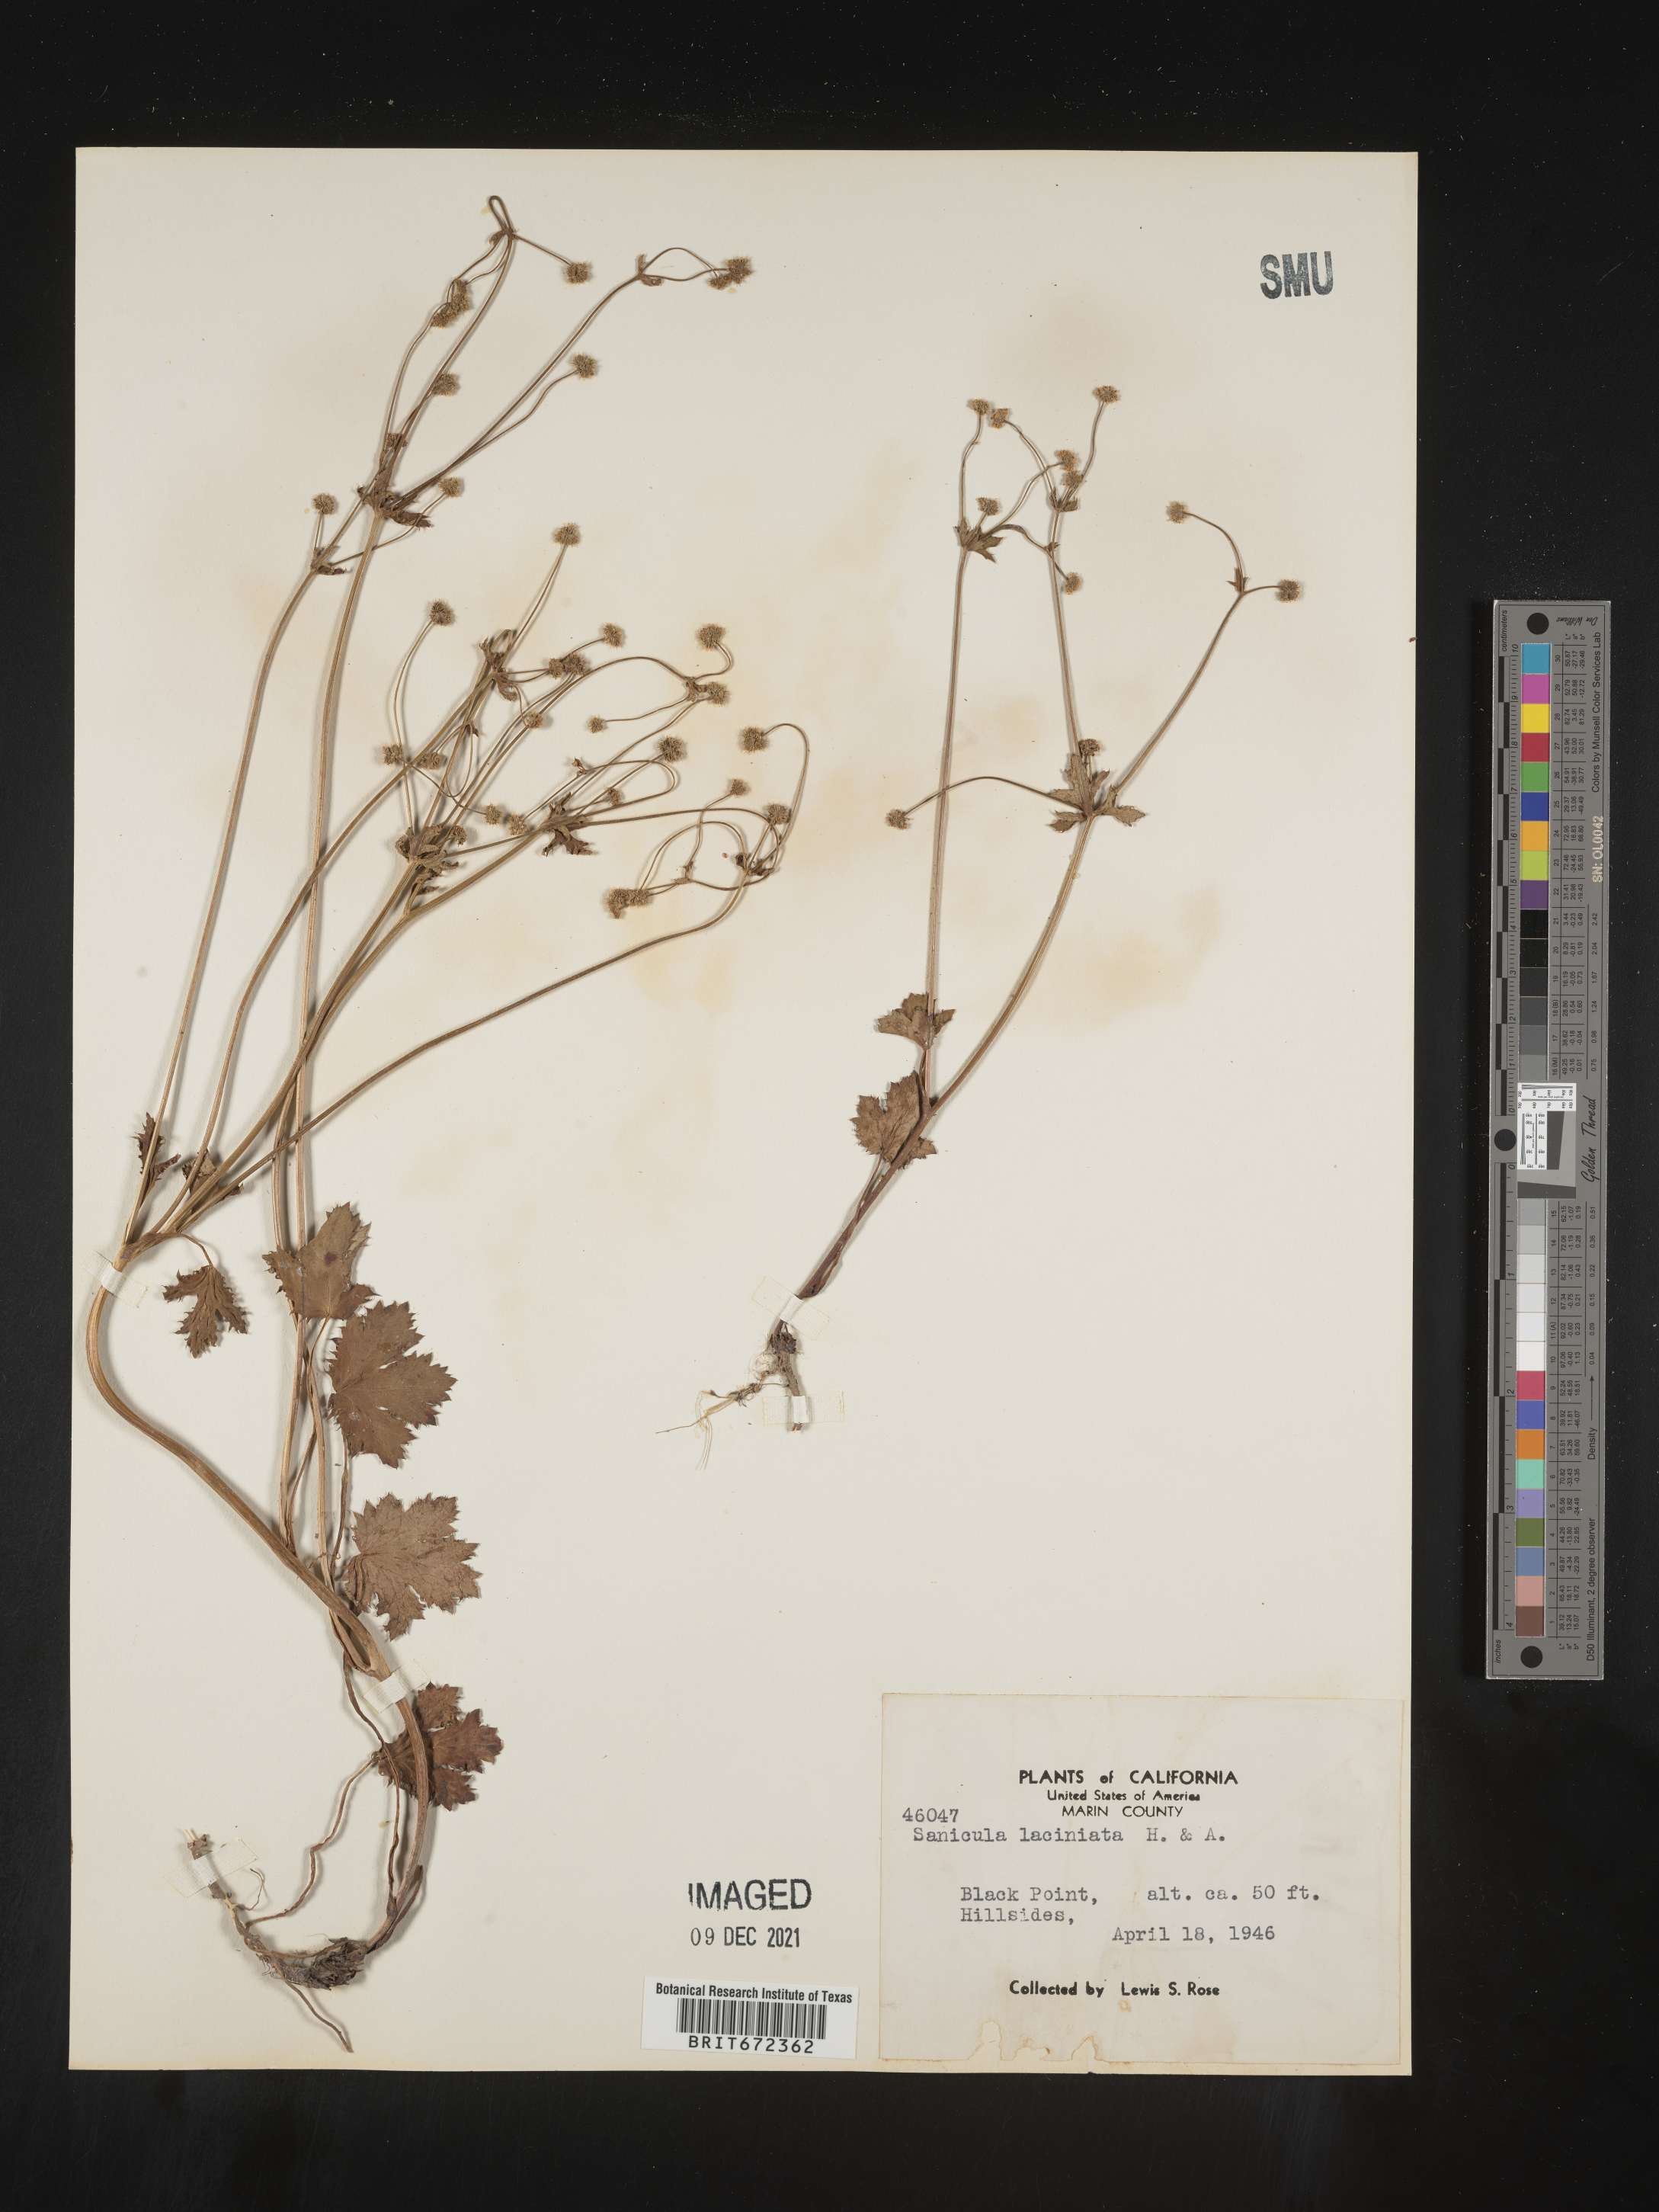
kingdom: Plantae
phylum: Tracheophyta
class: Magnoliopsida
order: Apiales
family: Apiaceae
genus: Sanicula
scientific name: Sanicula
